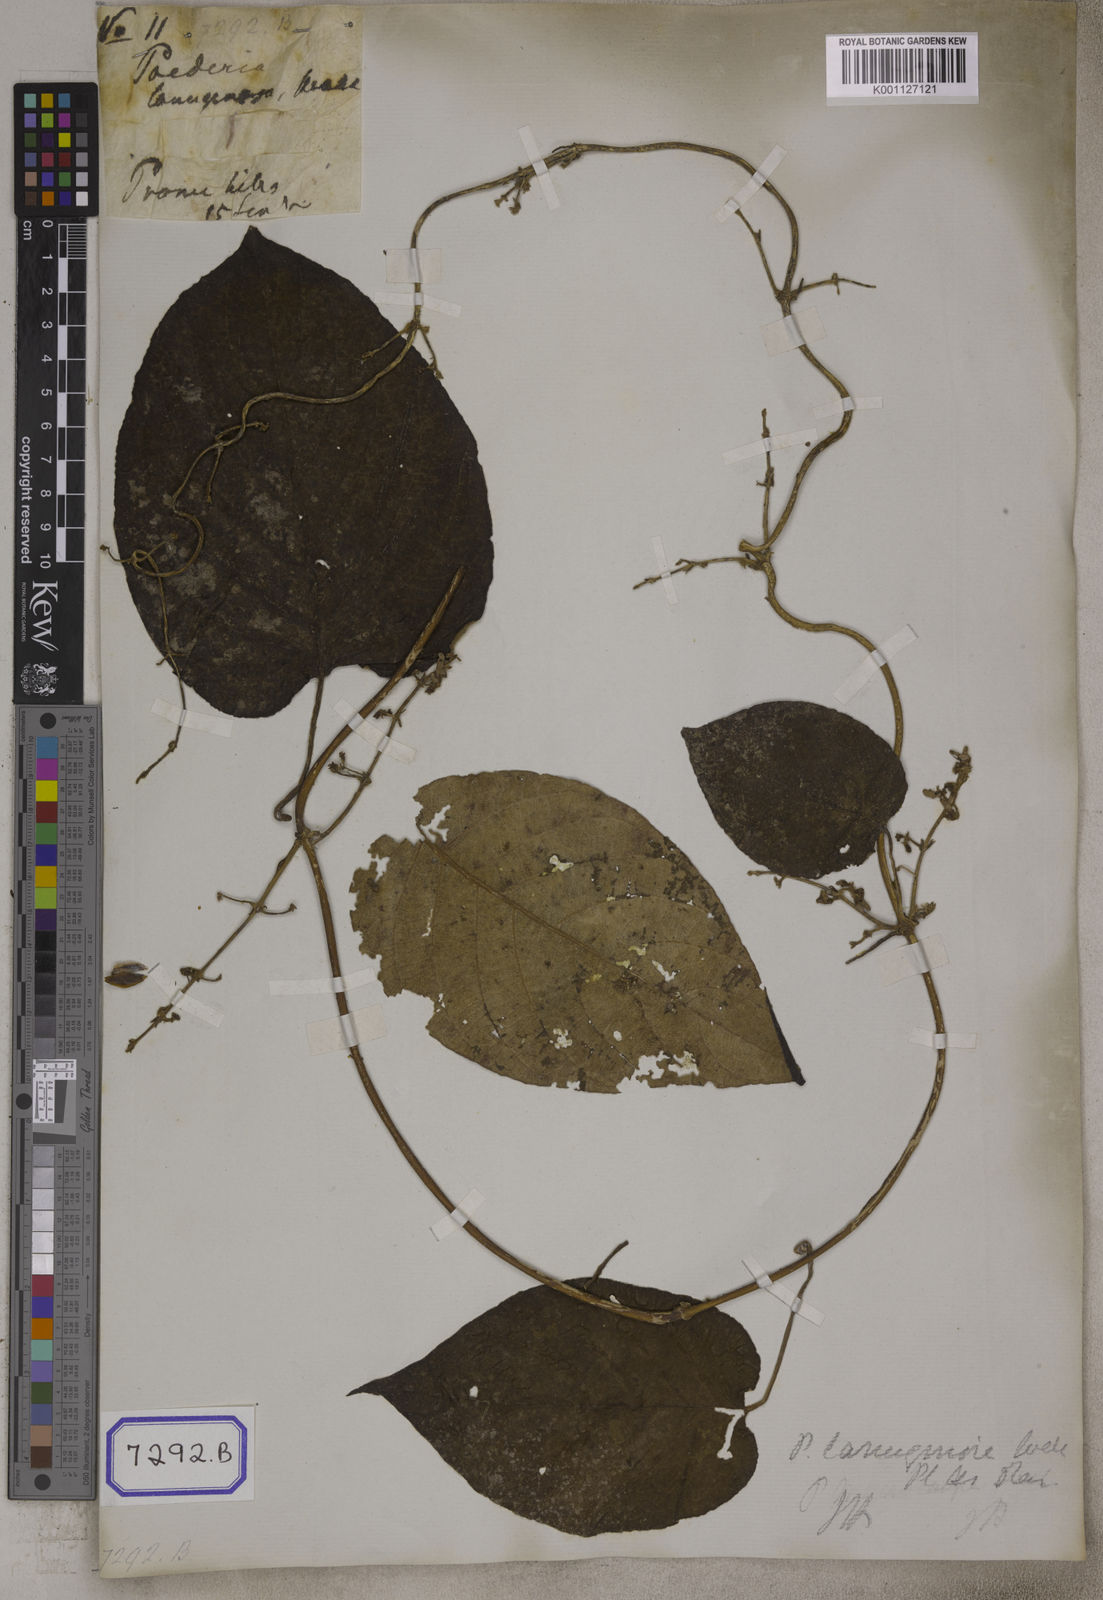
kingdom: Plantae
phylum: Tracheophyta
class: Magnoliopsida
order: Gentianales
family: Rubiaceae
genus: Paederia
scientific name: Paederia
